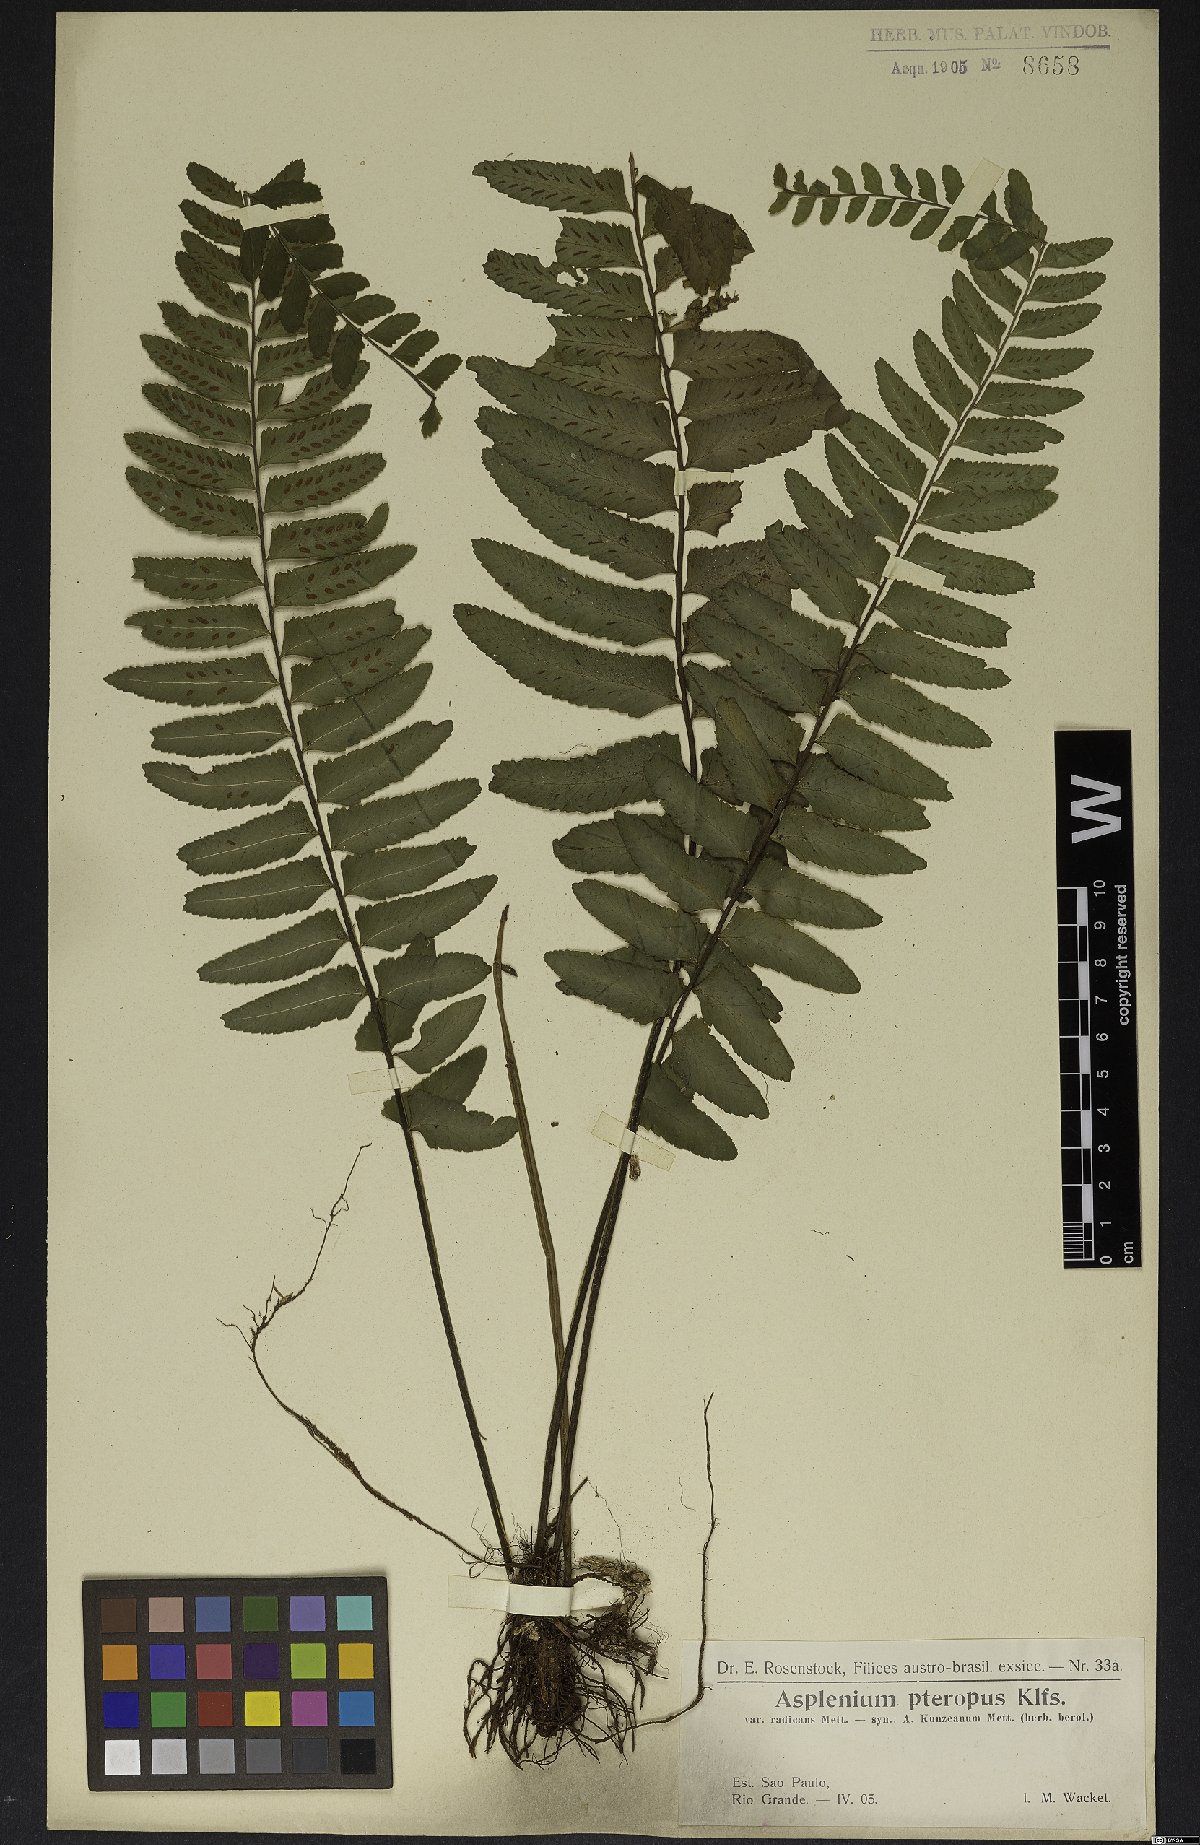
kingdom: Plantae
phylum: Tracheophyta
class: Polypodiopsida
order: Polypodiales
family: Aspleniaceae
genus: Asplenium
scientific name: Asplenium lunulatum
